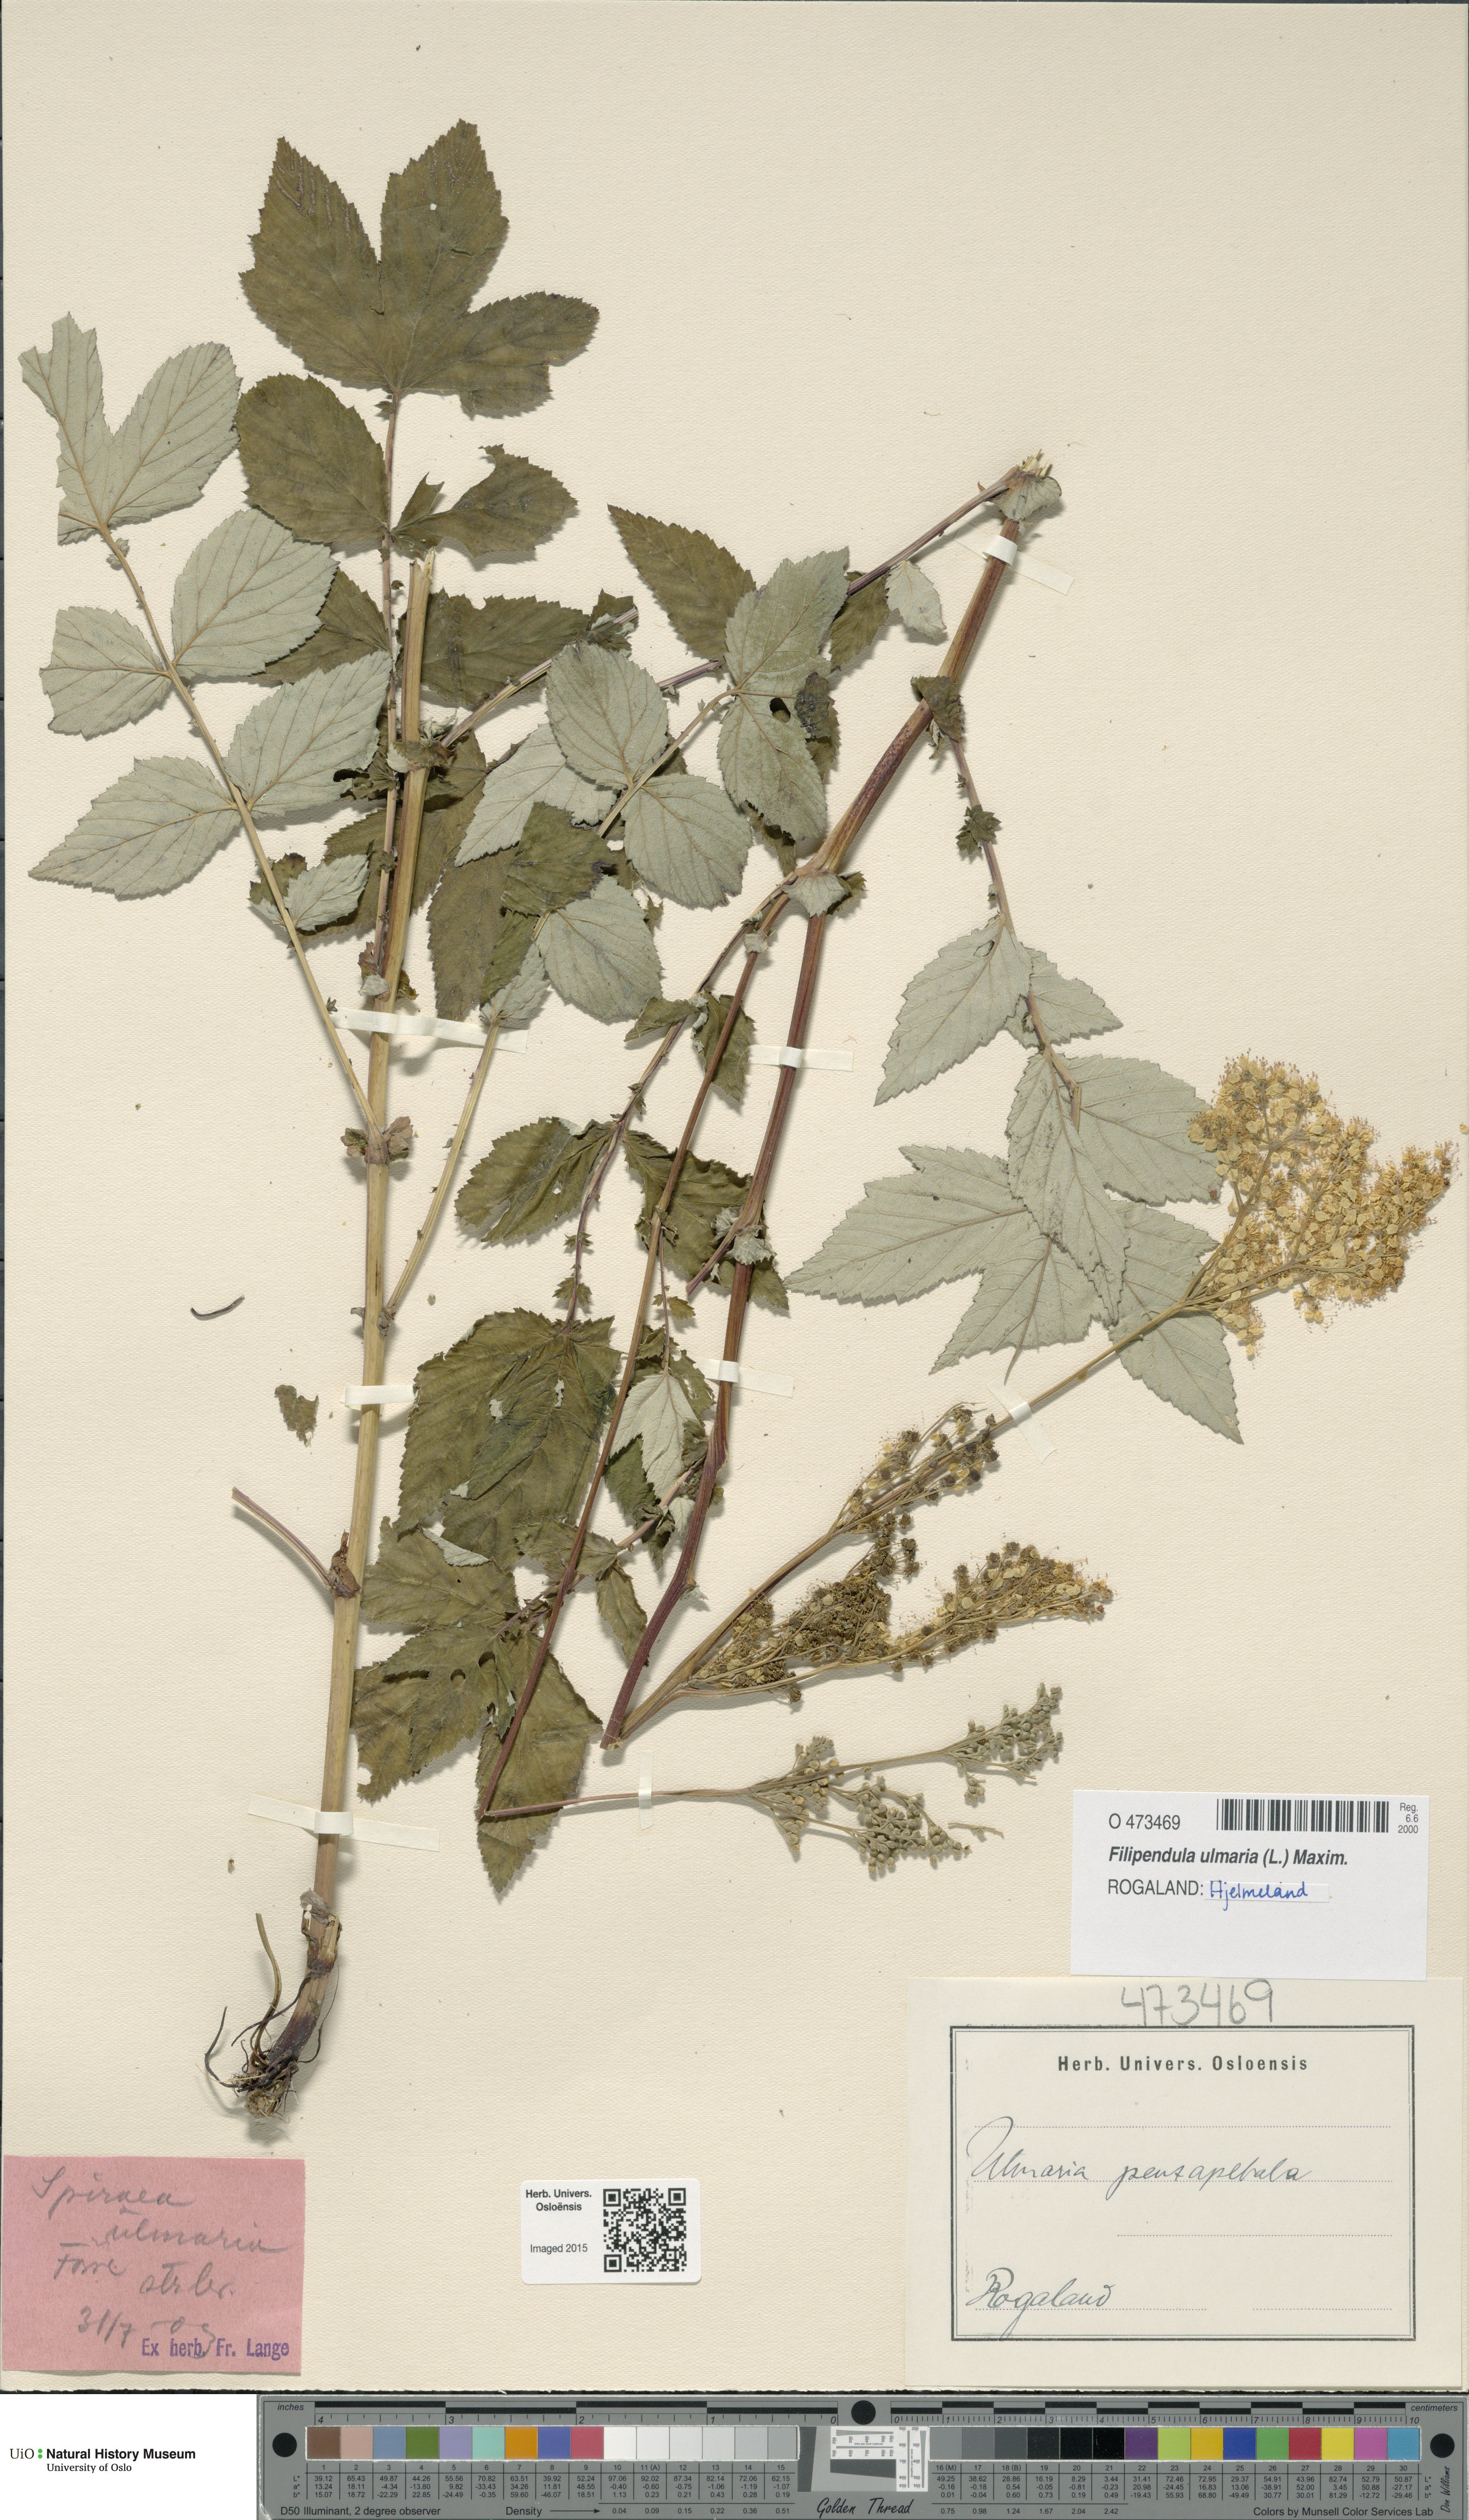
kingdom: Plantae
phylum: Tracheophyta
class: Magnoliopsida
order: Rosales
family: Rosaceae
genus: Filipendula
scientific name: Filipendula ulmaria
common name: Meadowsweet
